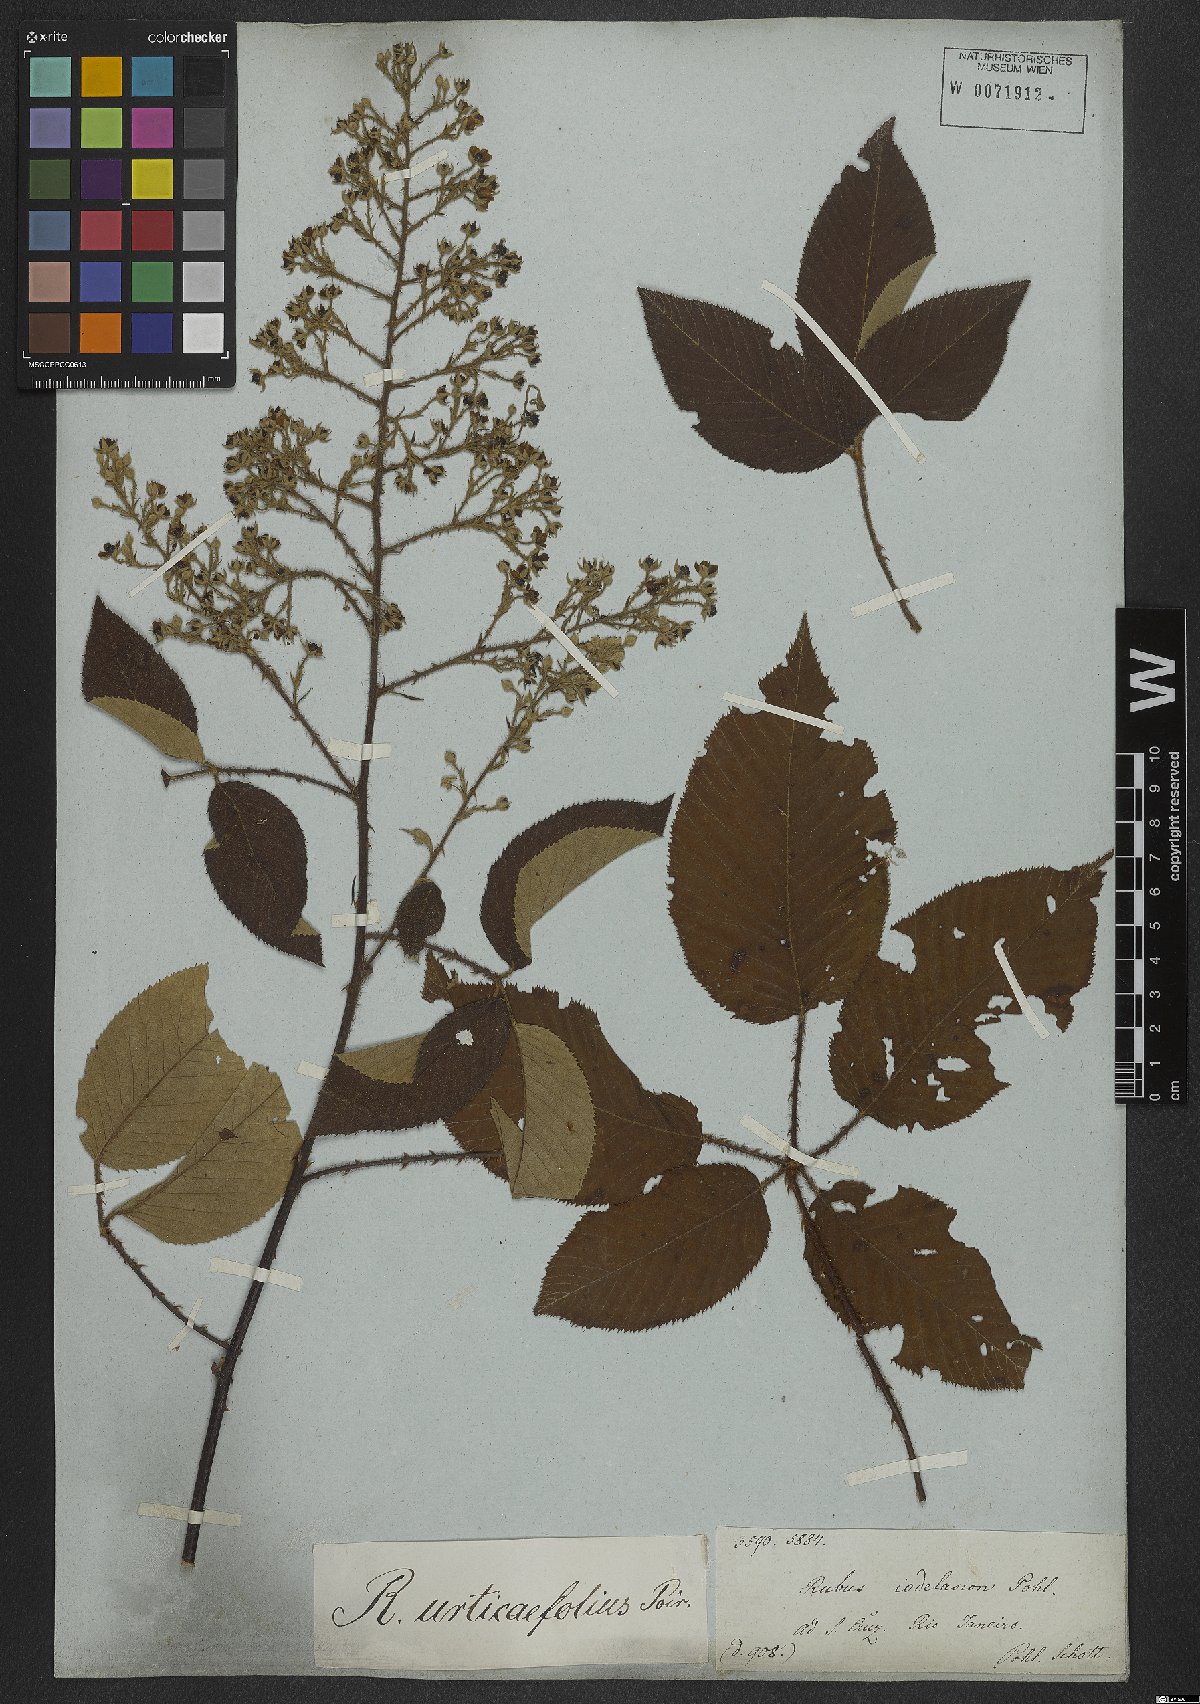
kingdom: Plantae
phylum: Tracheophyta
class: Magnoliopsida
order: Rosales
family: Rosaceae
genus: Rubus
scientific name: Rubus urticifolius
